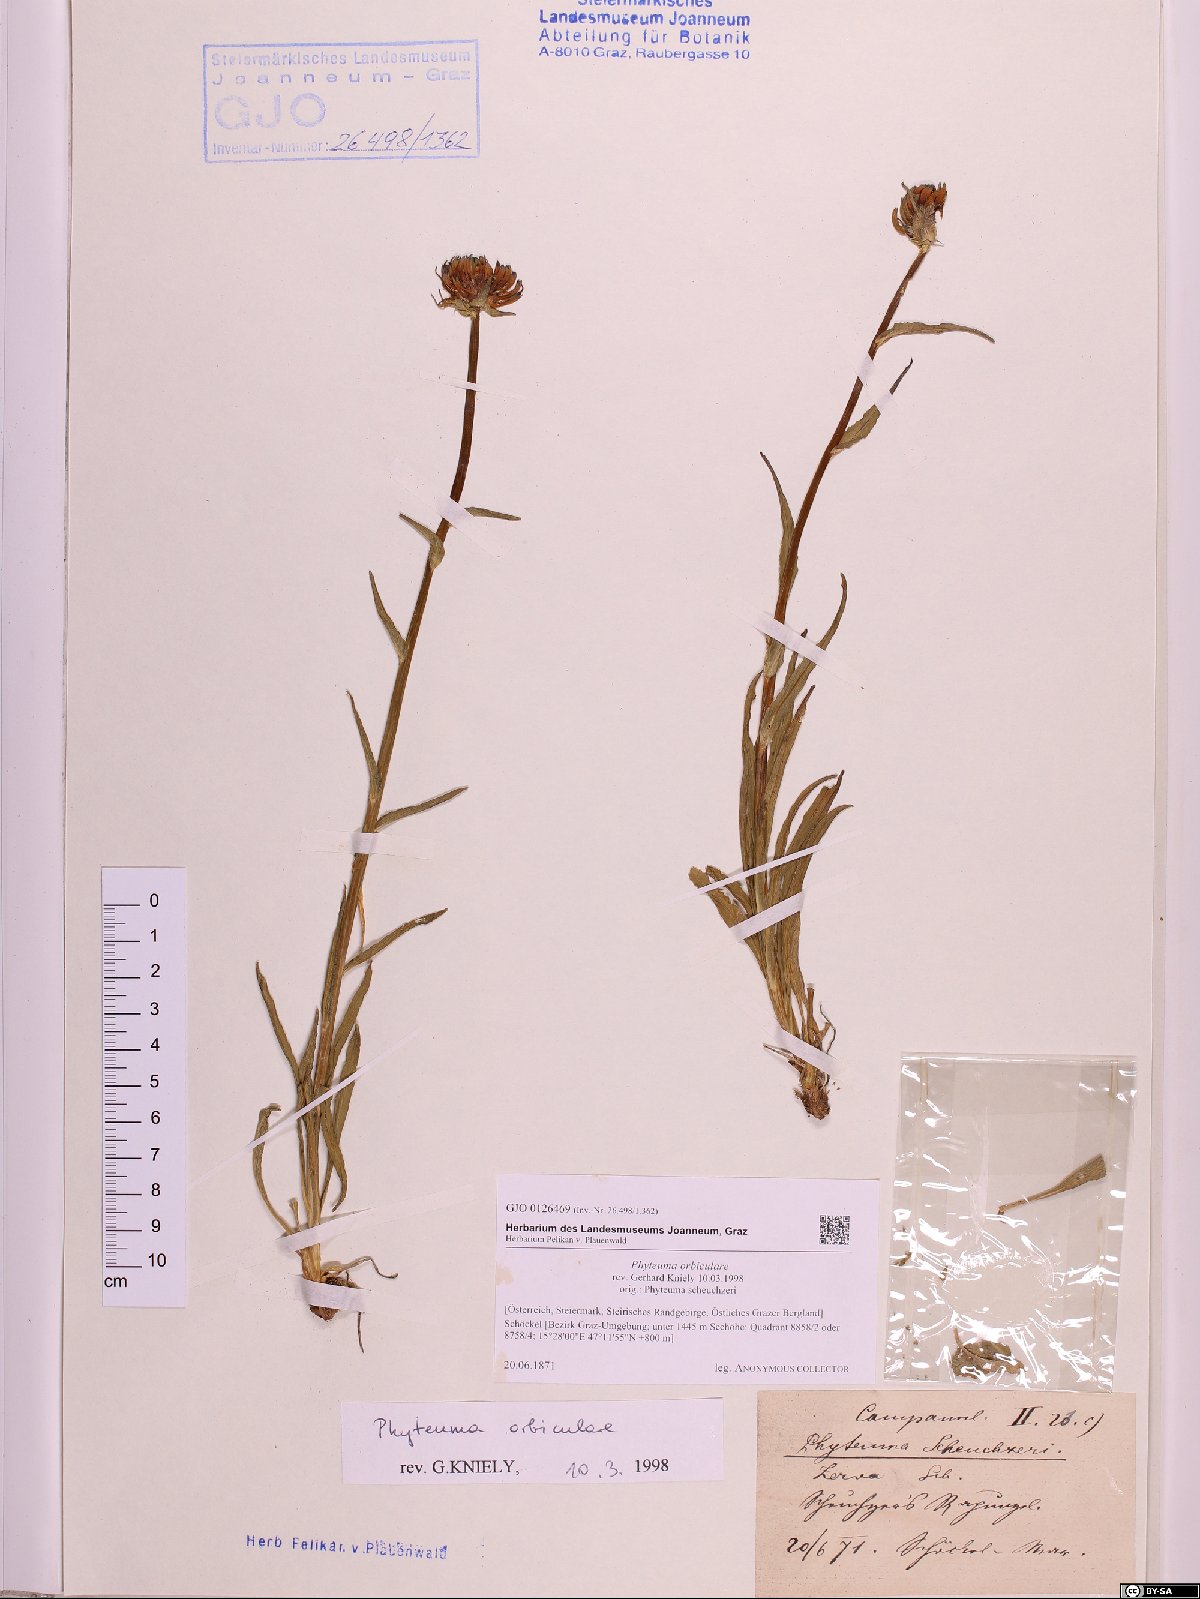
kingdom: Plantae
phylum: Tracheophyta
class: Magnoliopsida
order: Asterales
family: Campanulaceae
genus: Phyteuma
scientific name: Phyteuma orbiculare
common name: Round-headed rampion
